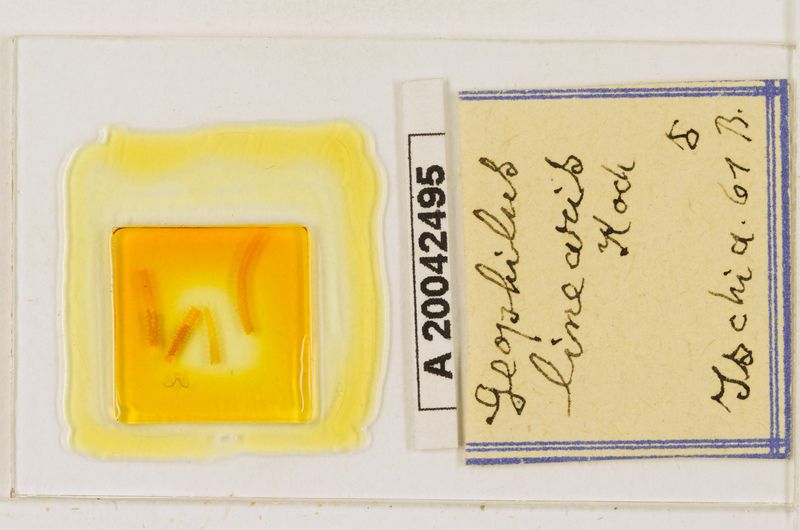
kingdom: Animalia
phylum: Arthropoda
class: Chilopoda
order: Geophilomorpha
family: Geophilidae
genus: Stenotaenia
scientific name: Stenotaenia linearis
